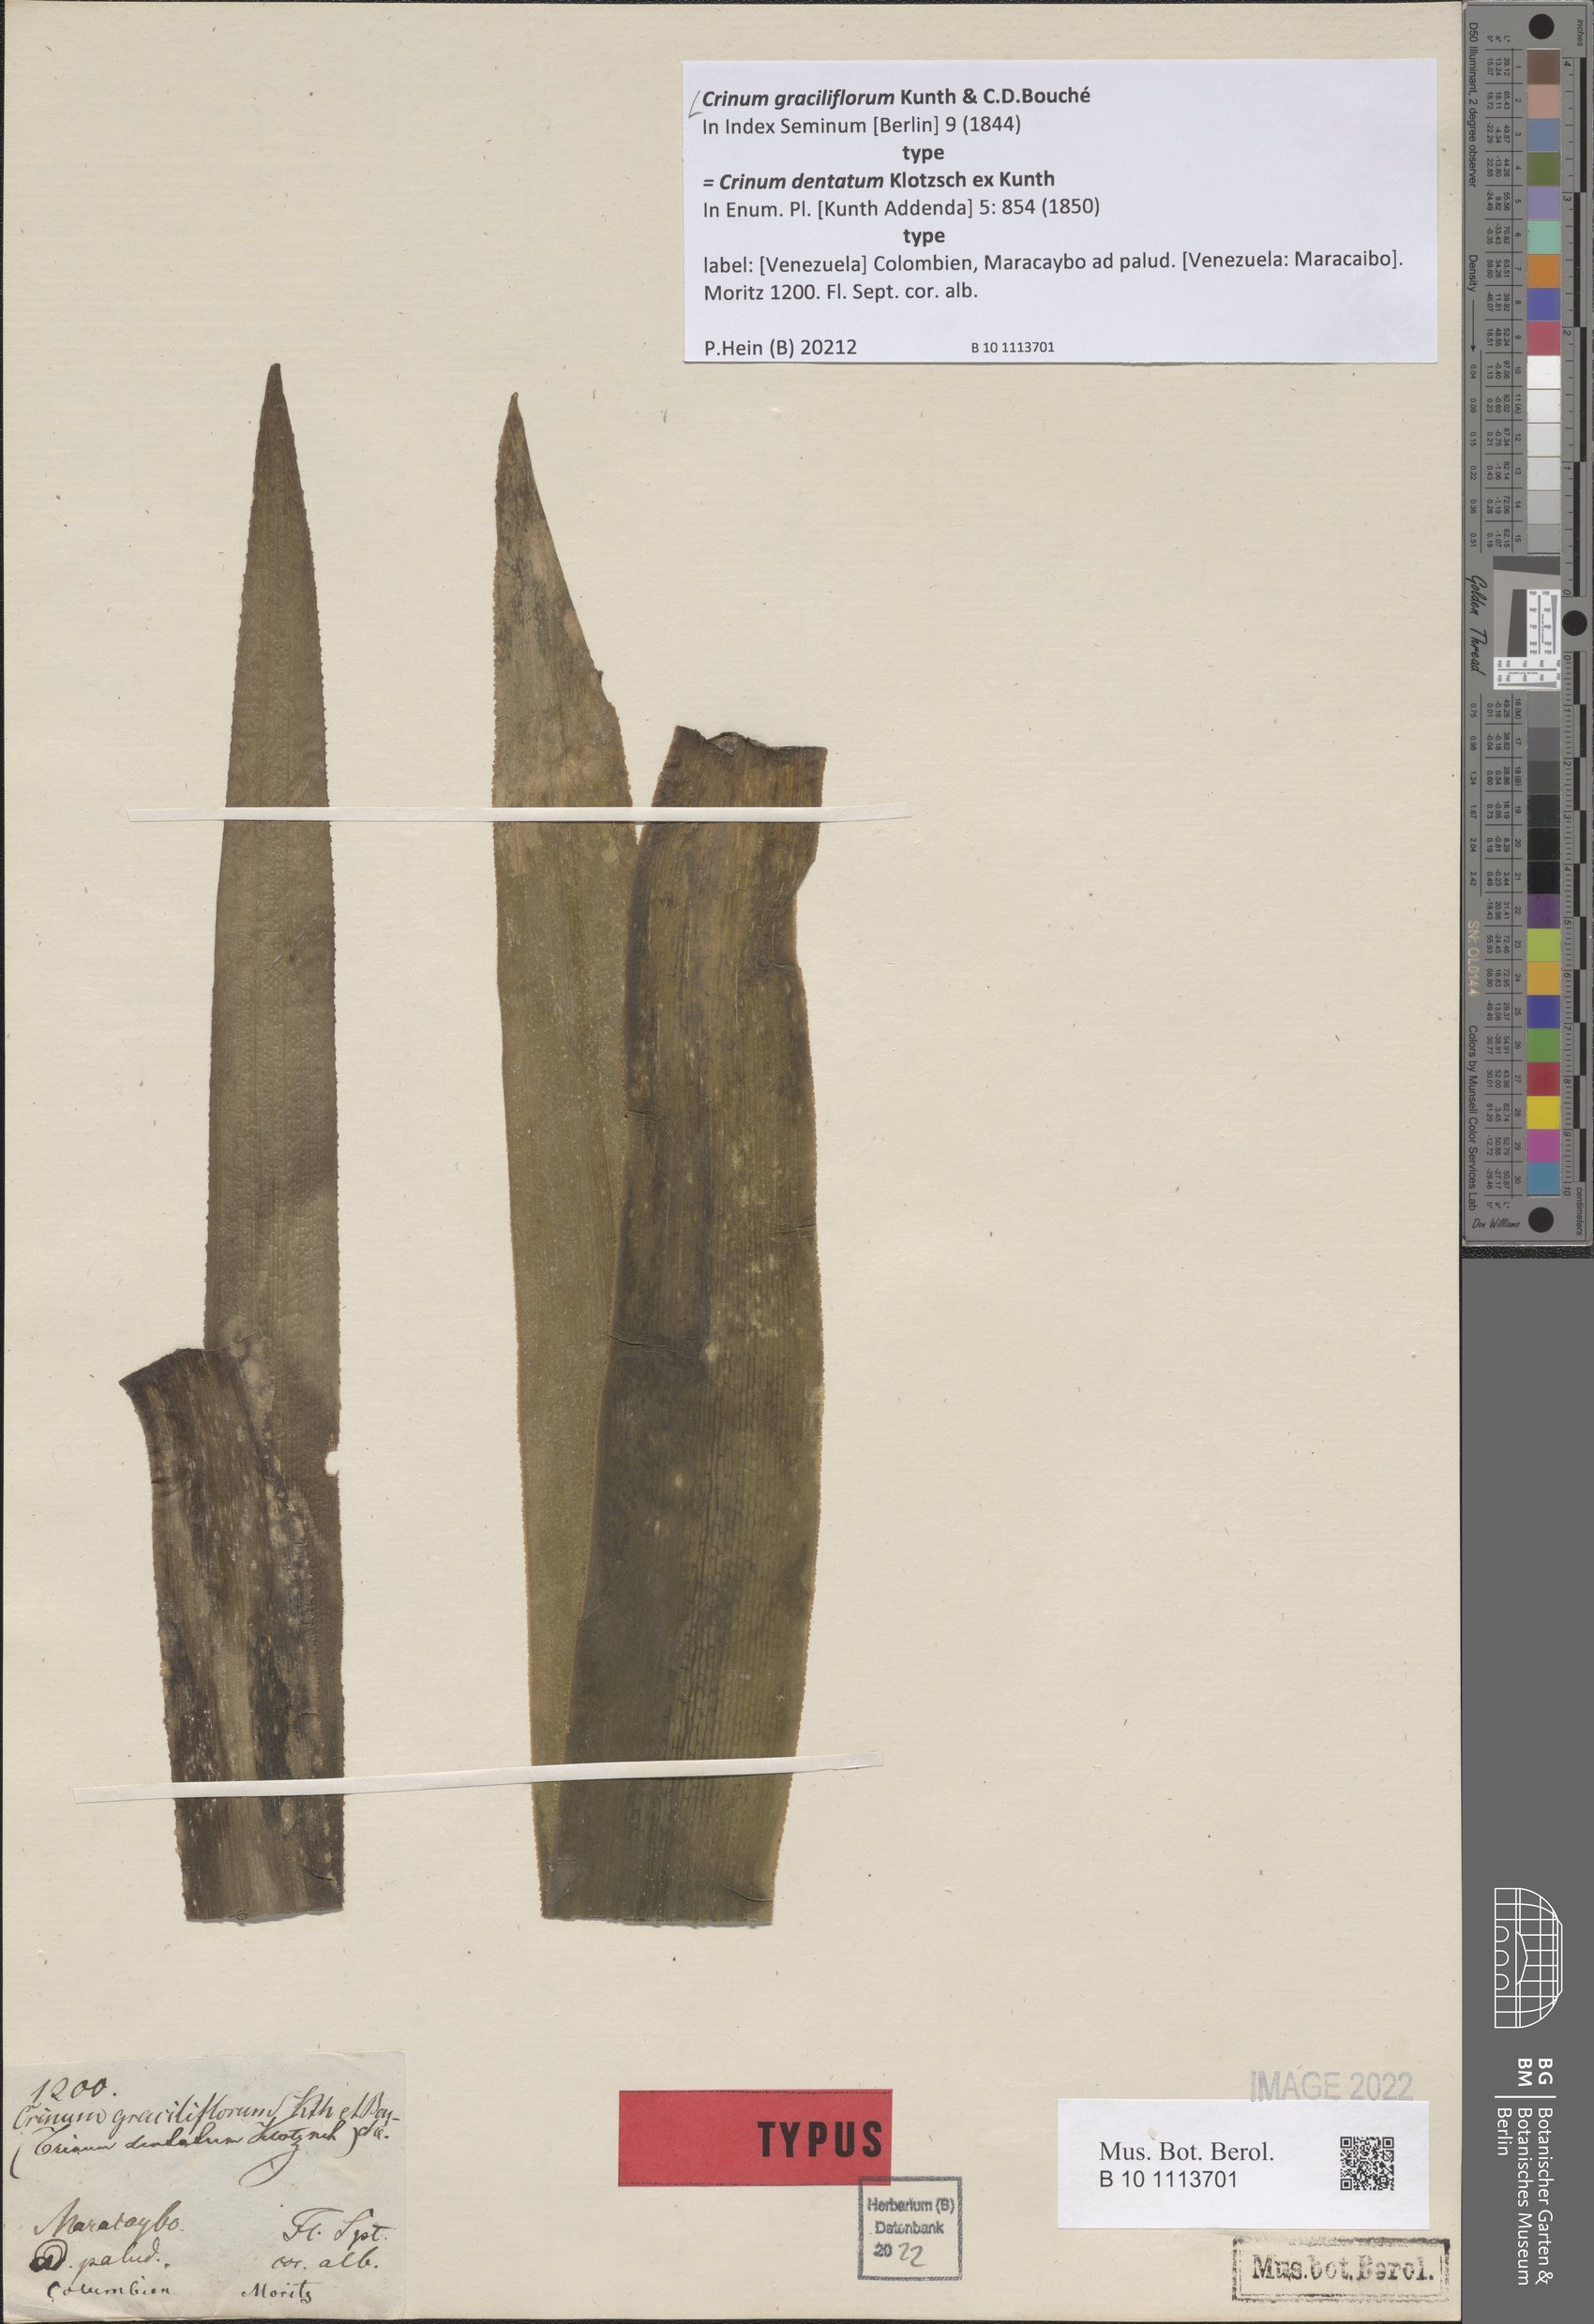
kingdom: Plantae
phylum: Tracheophyta
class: Liliopsida
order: Asparagales
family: Amaryllidaceae
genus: Crinum
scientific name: Crinum graciliflorum
